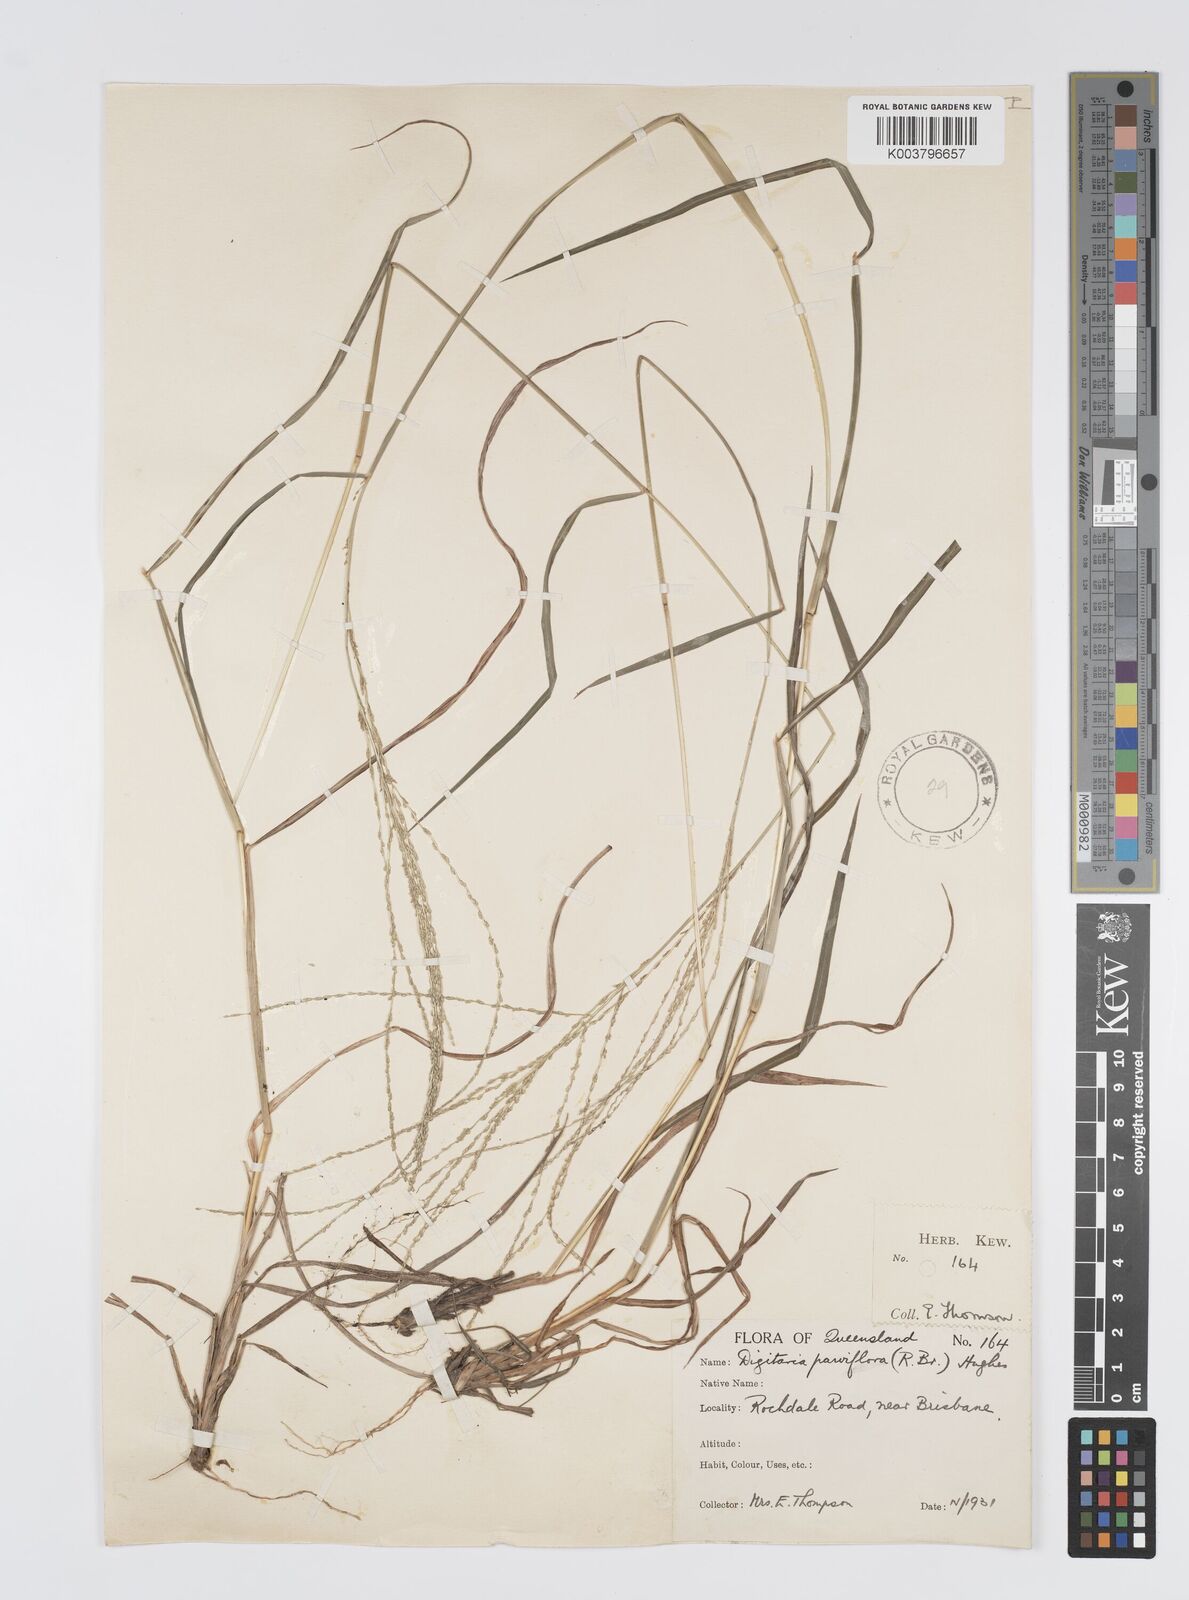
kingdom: Plantae
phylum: Tracheophyta
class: Liliopsida
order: Poales
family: Poaceae
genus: Digitaria
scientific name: Digitaria ramularis
